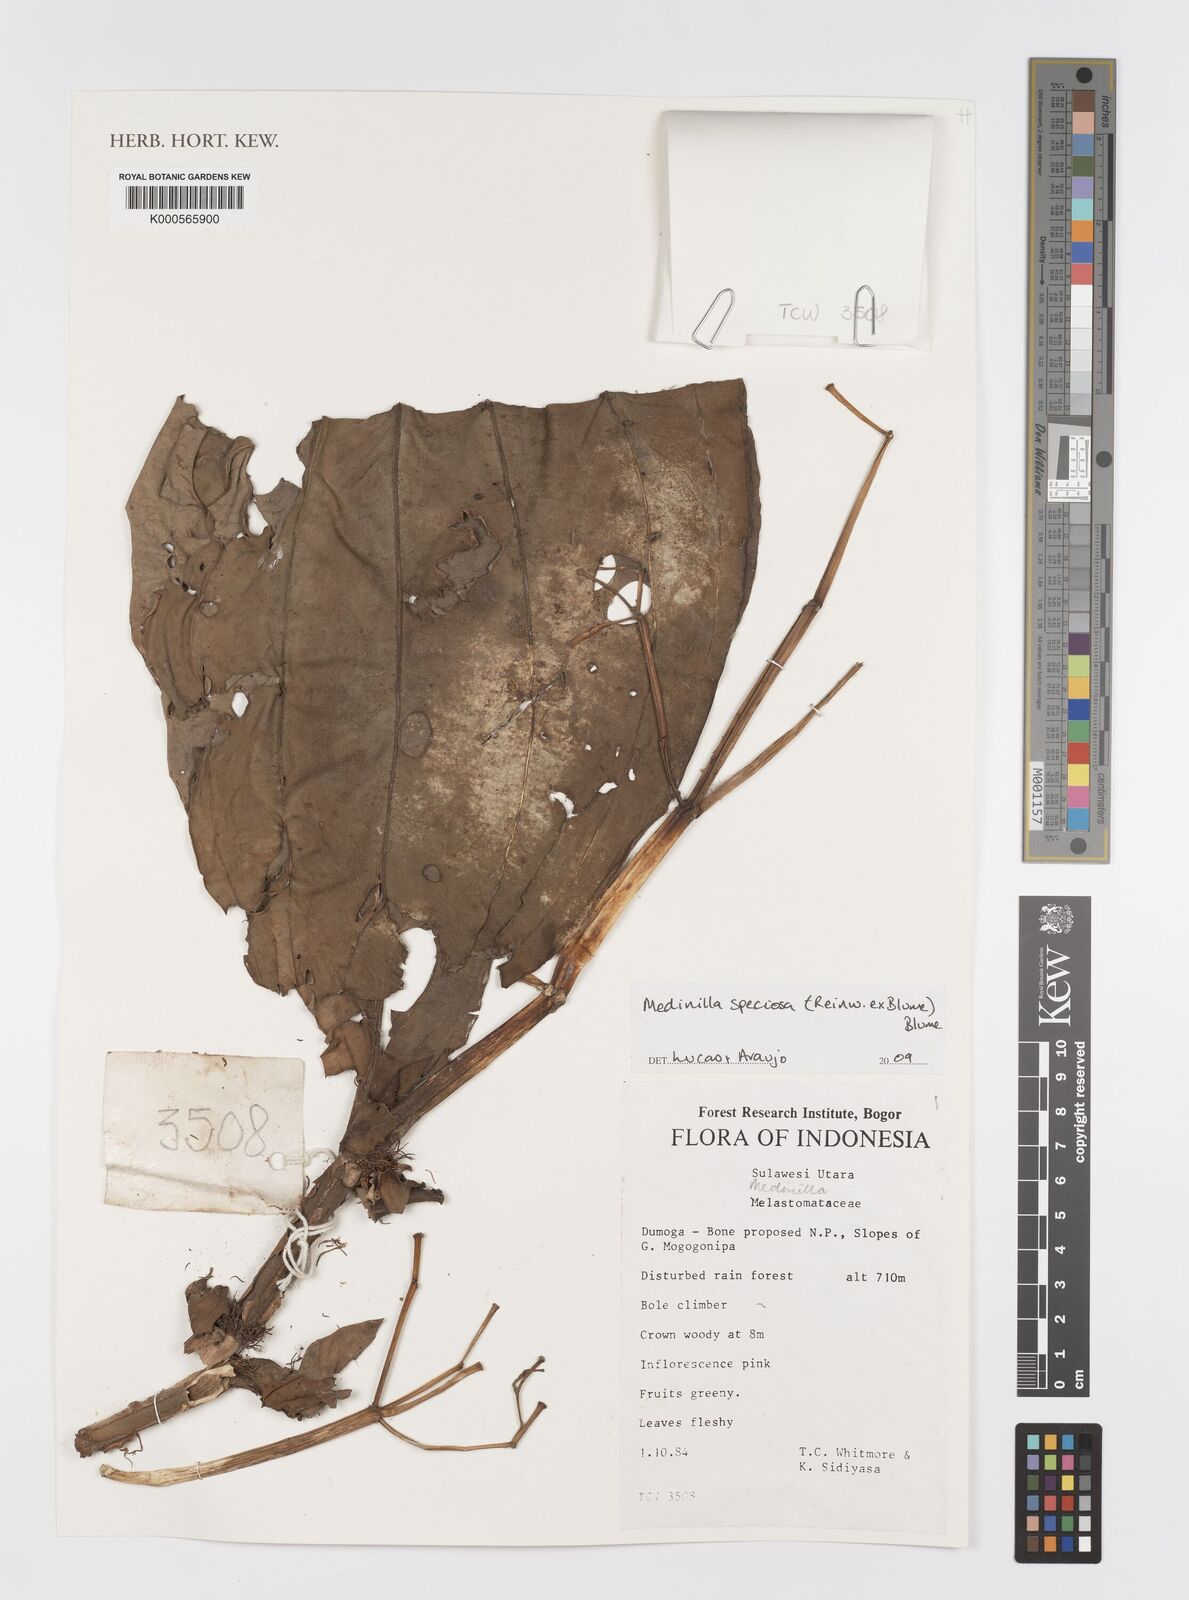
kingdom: Plantae
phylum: Tracheophyta
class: Magnoliopsida
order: Myrtales
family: Melastomataceae
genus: Medinilla
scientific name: Medinilla speciosa
